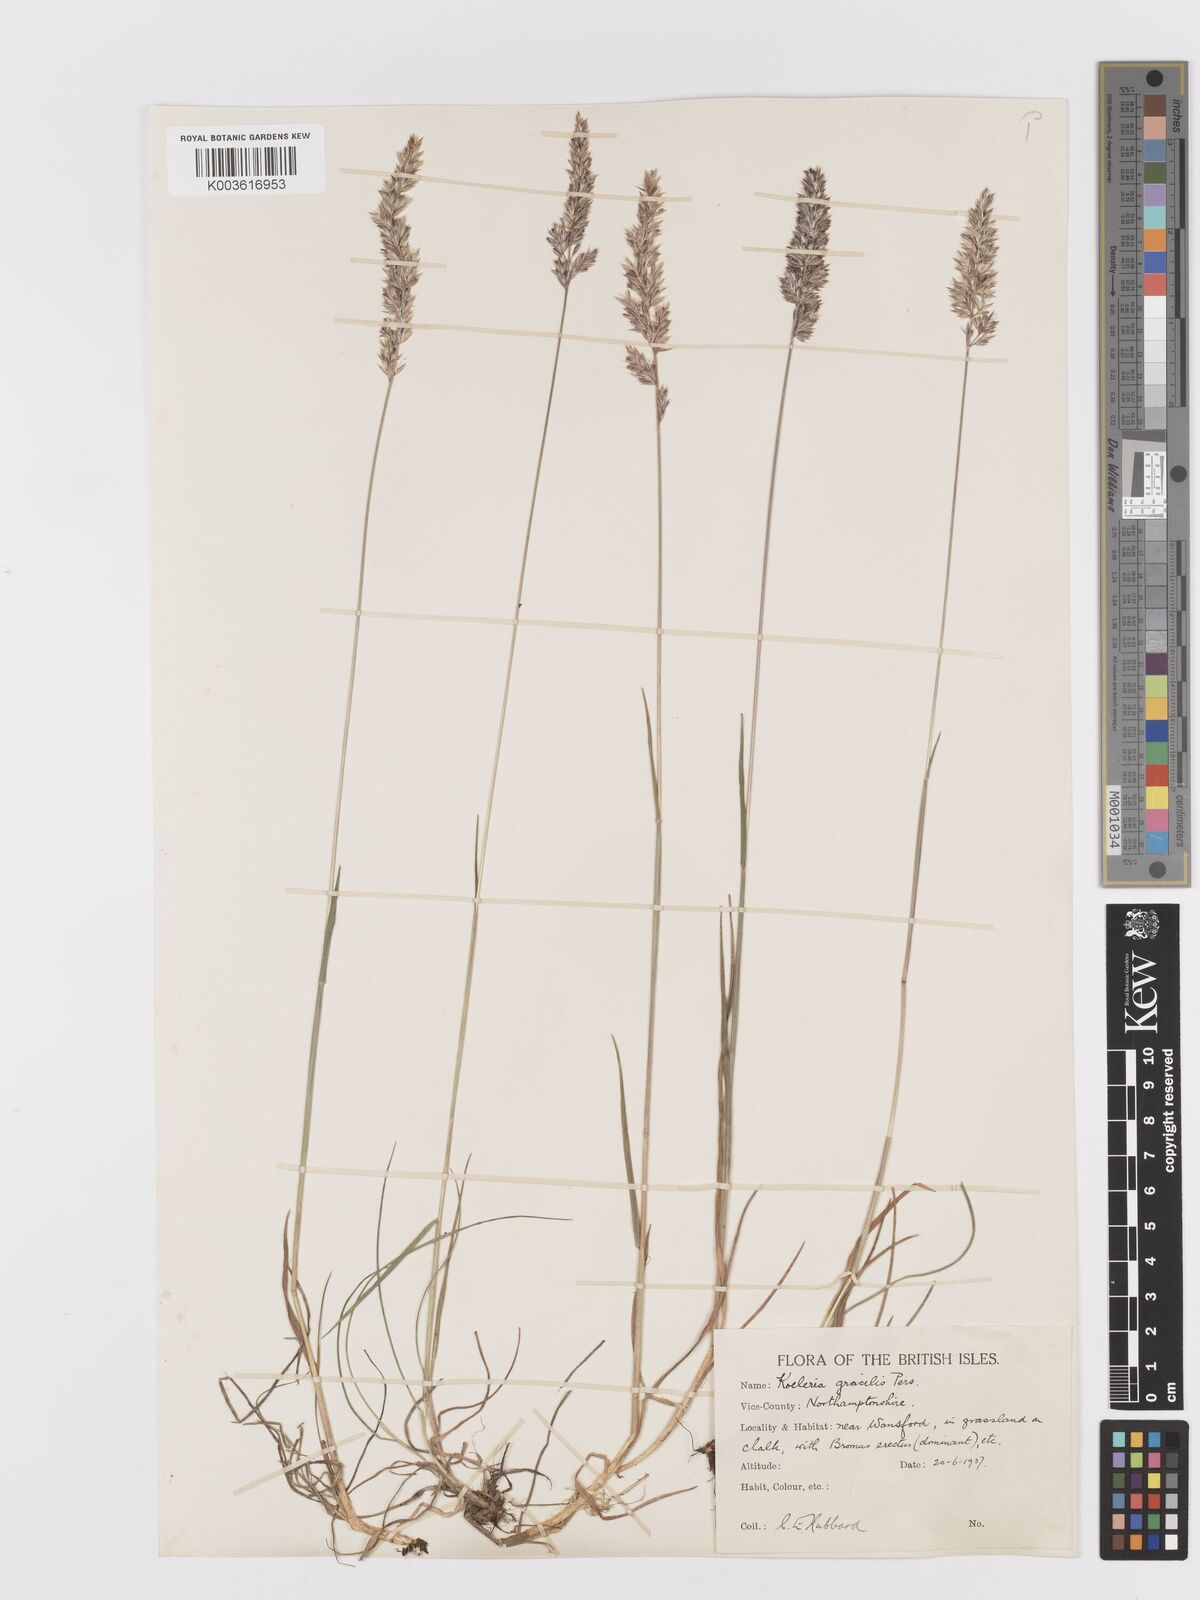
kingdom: Plantae
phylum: Tracheophyta
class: Liliopsida
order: Poales
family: Poaceae
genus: Koeleria
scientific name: Koeleria macrantha
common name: Crested hair-grass
